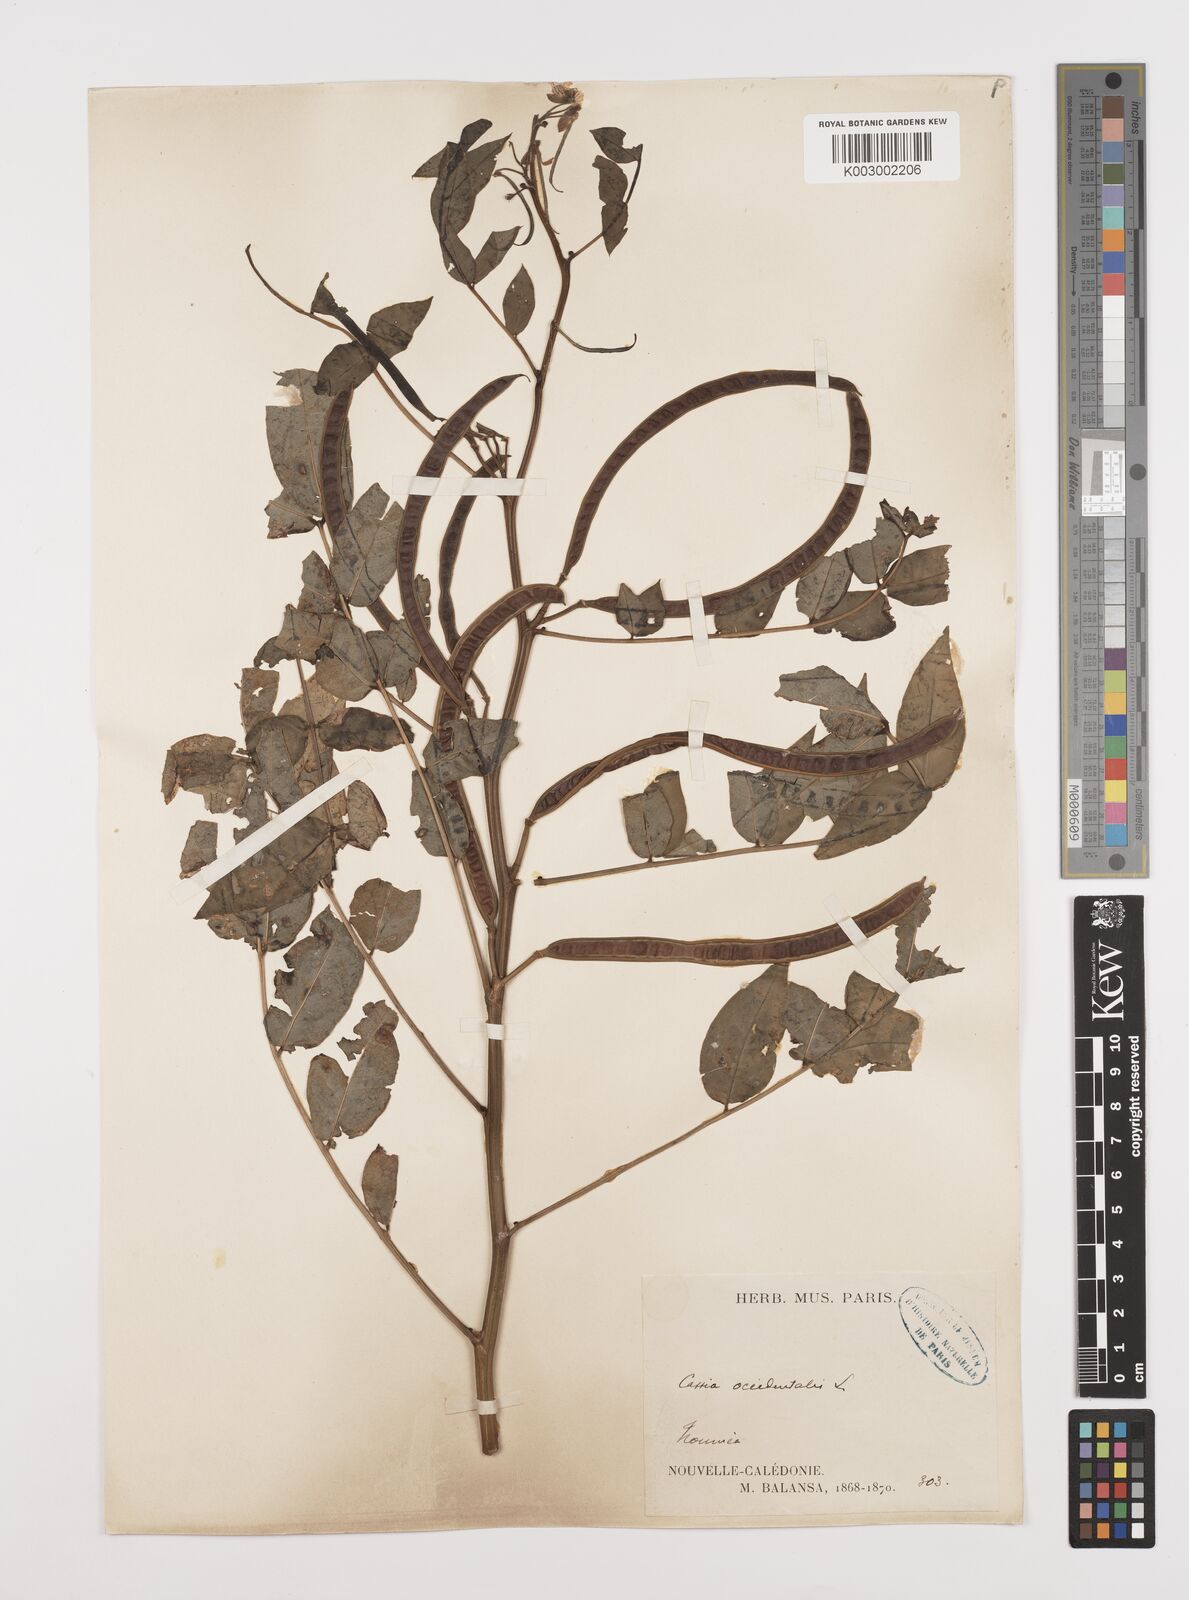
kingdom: Plantae
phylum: Tracheophyta
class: Magnoliopsida
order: Fabales
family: Fabaceae
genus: Senna
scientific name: Senna occidentalis
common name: Septicweed
